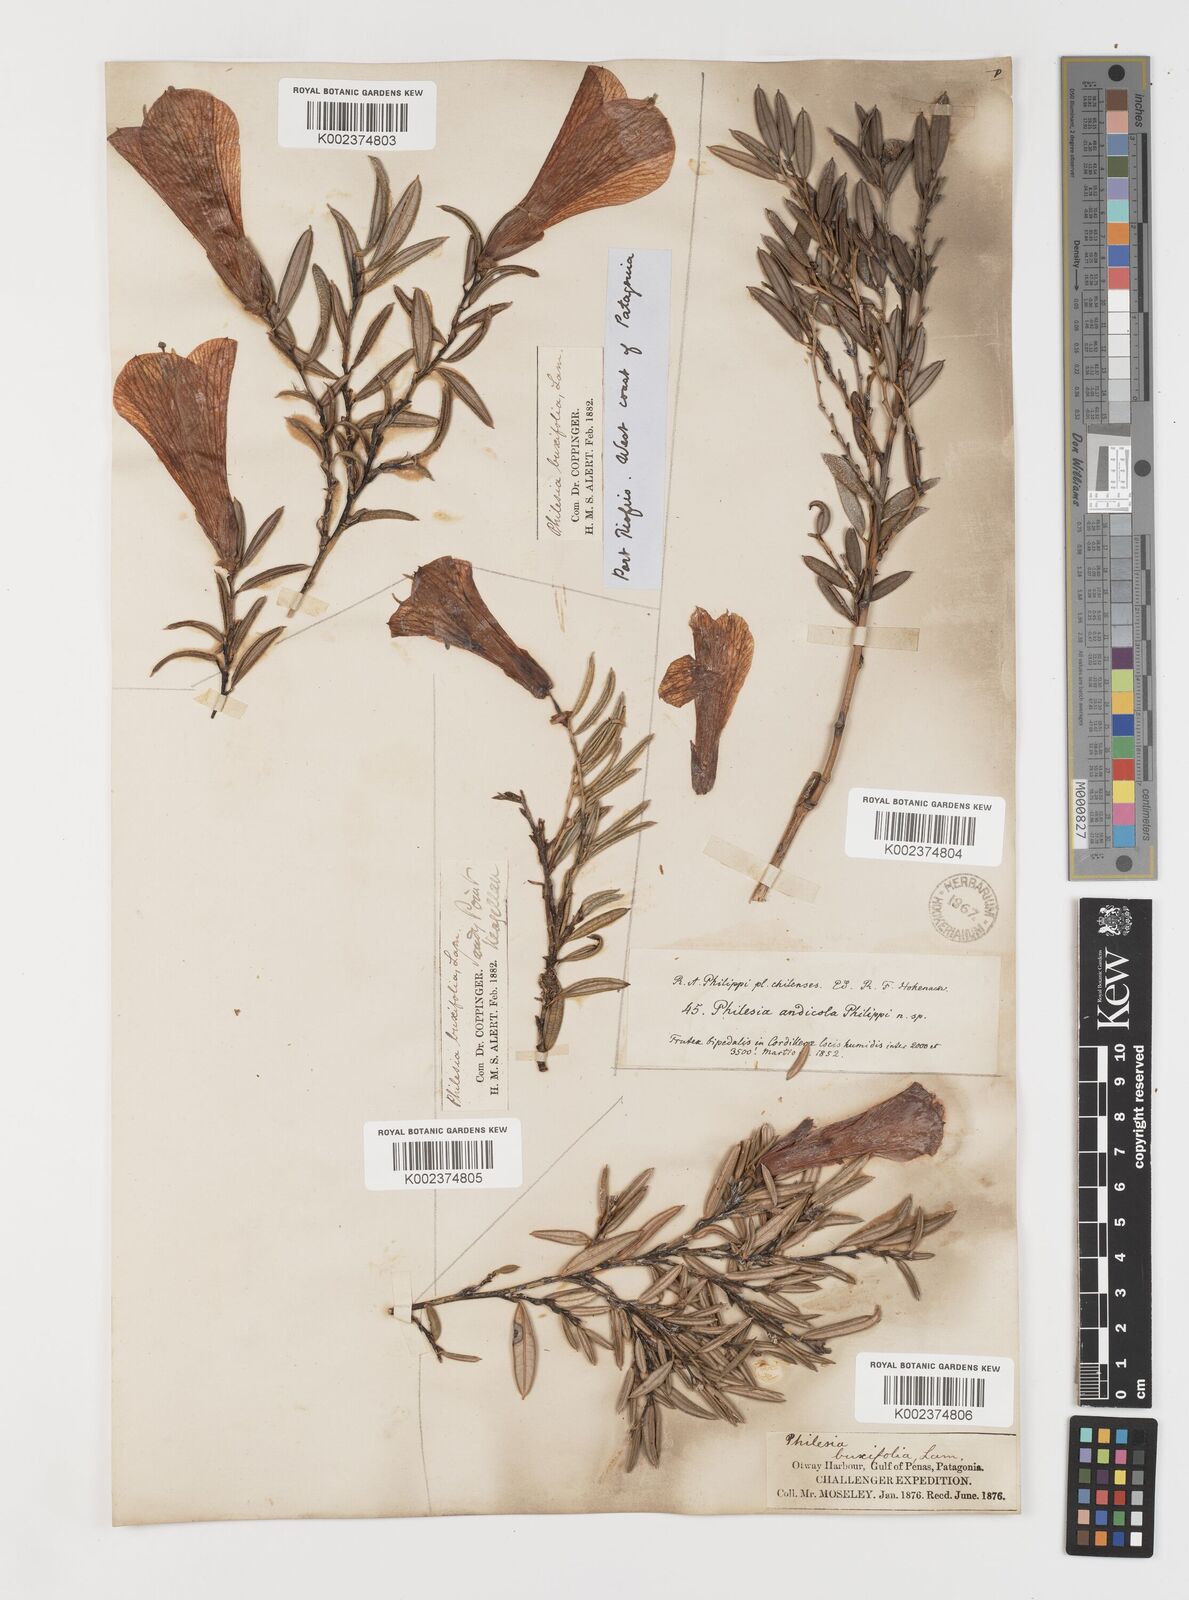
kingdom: Plantae
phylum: Tracheophyta
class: Liliopsida
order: Liliales
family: Philesiaceae
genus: Philesia
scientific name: Philesia magellanica
